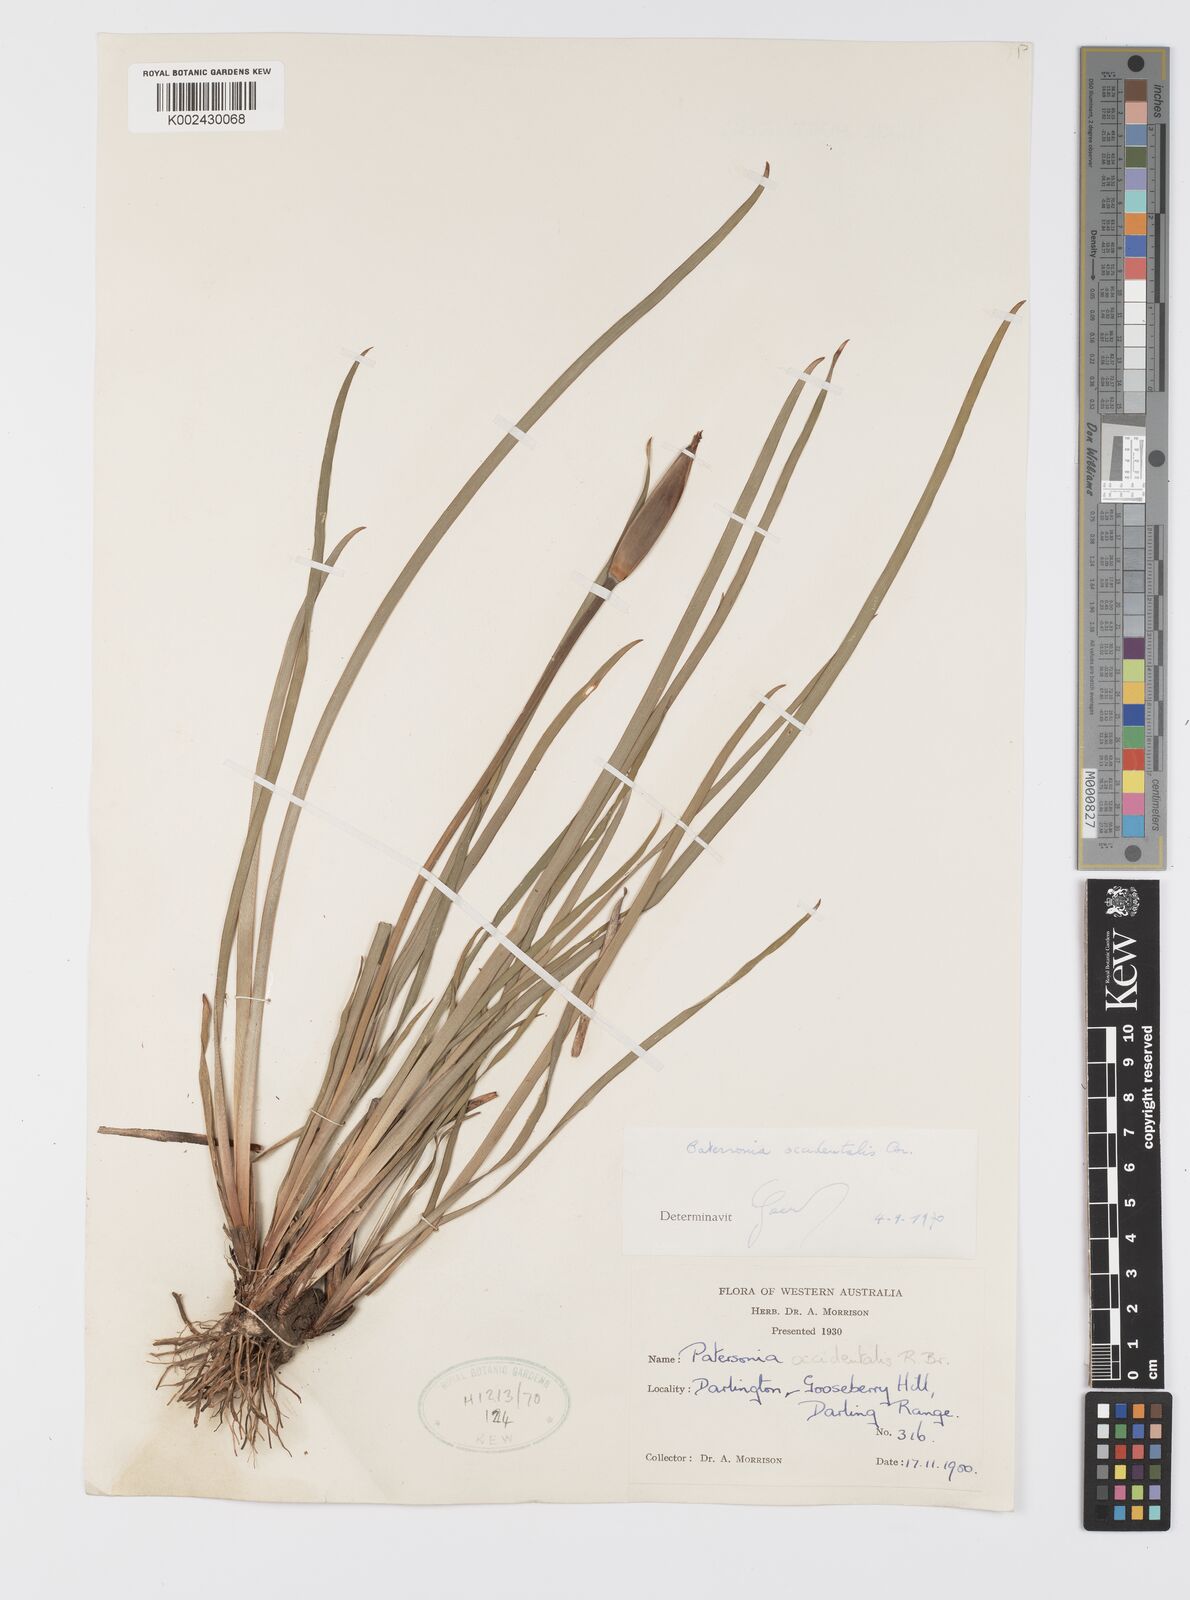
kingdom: Plantae
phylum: Tracheophyta
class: Liliopsida
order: Asparagales
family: Iridaceae
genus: Patersonia
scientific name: Patersonia occidentalis
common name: Long purple-flag
